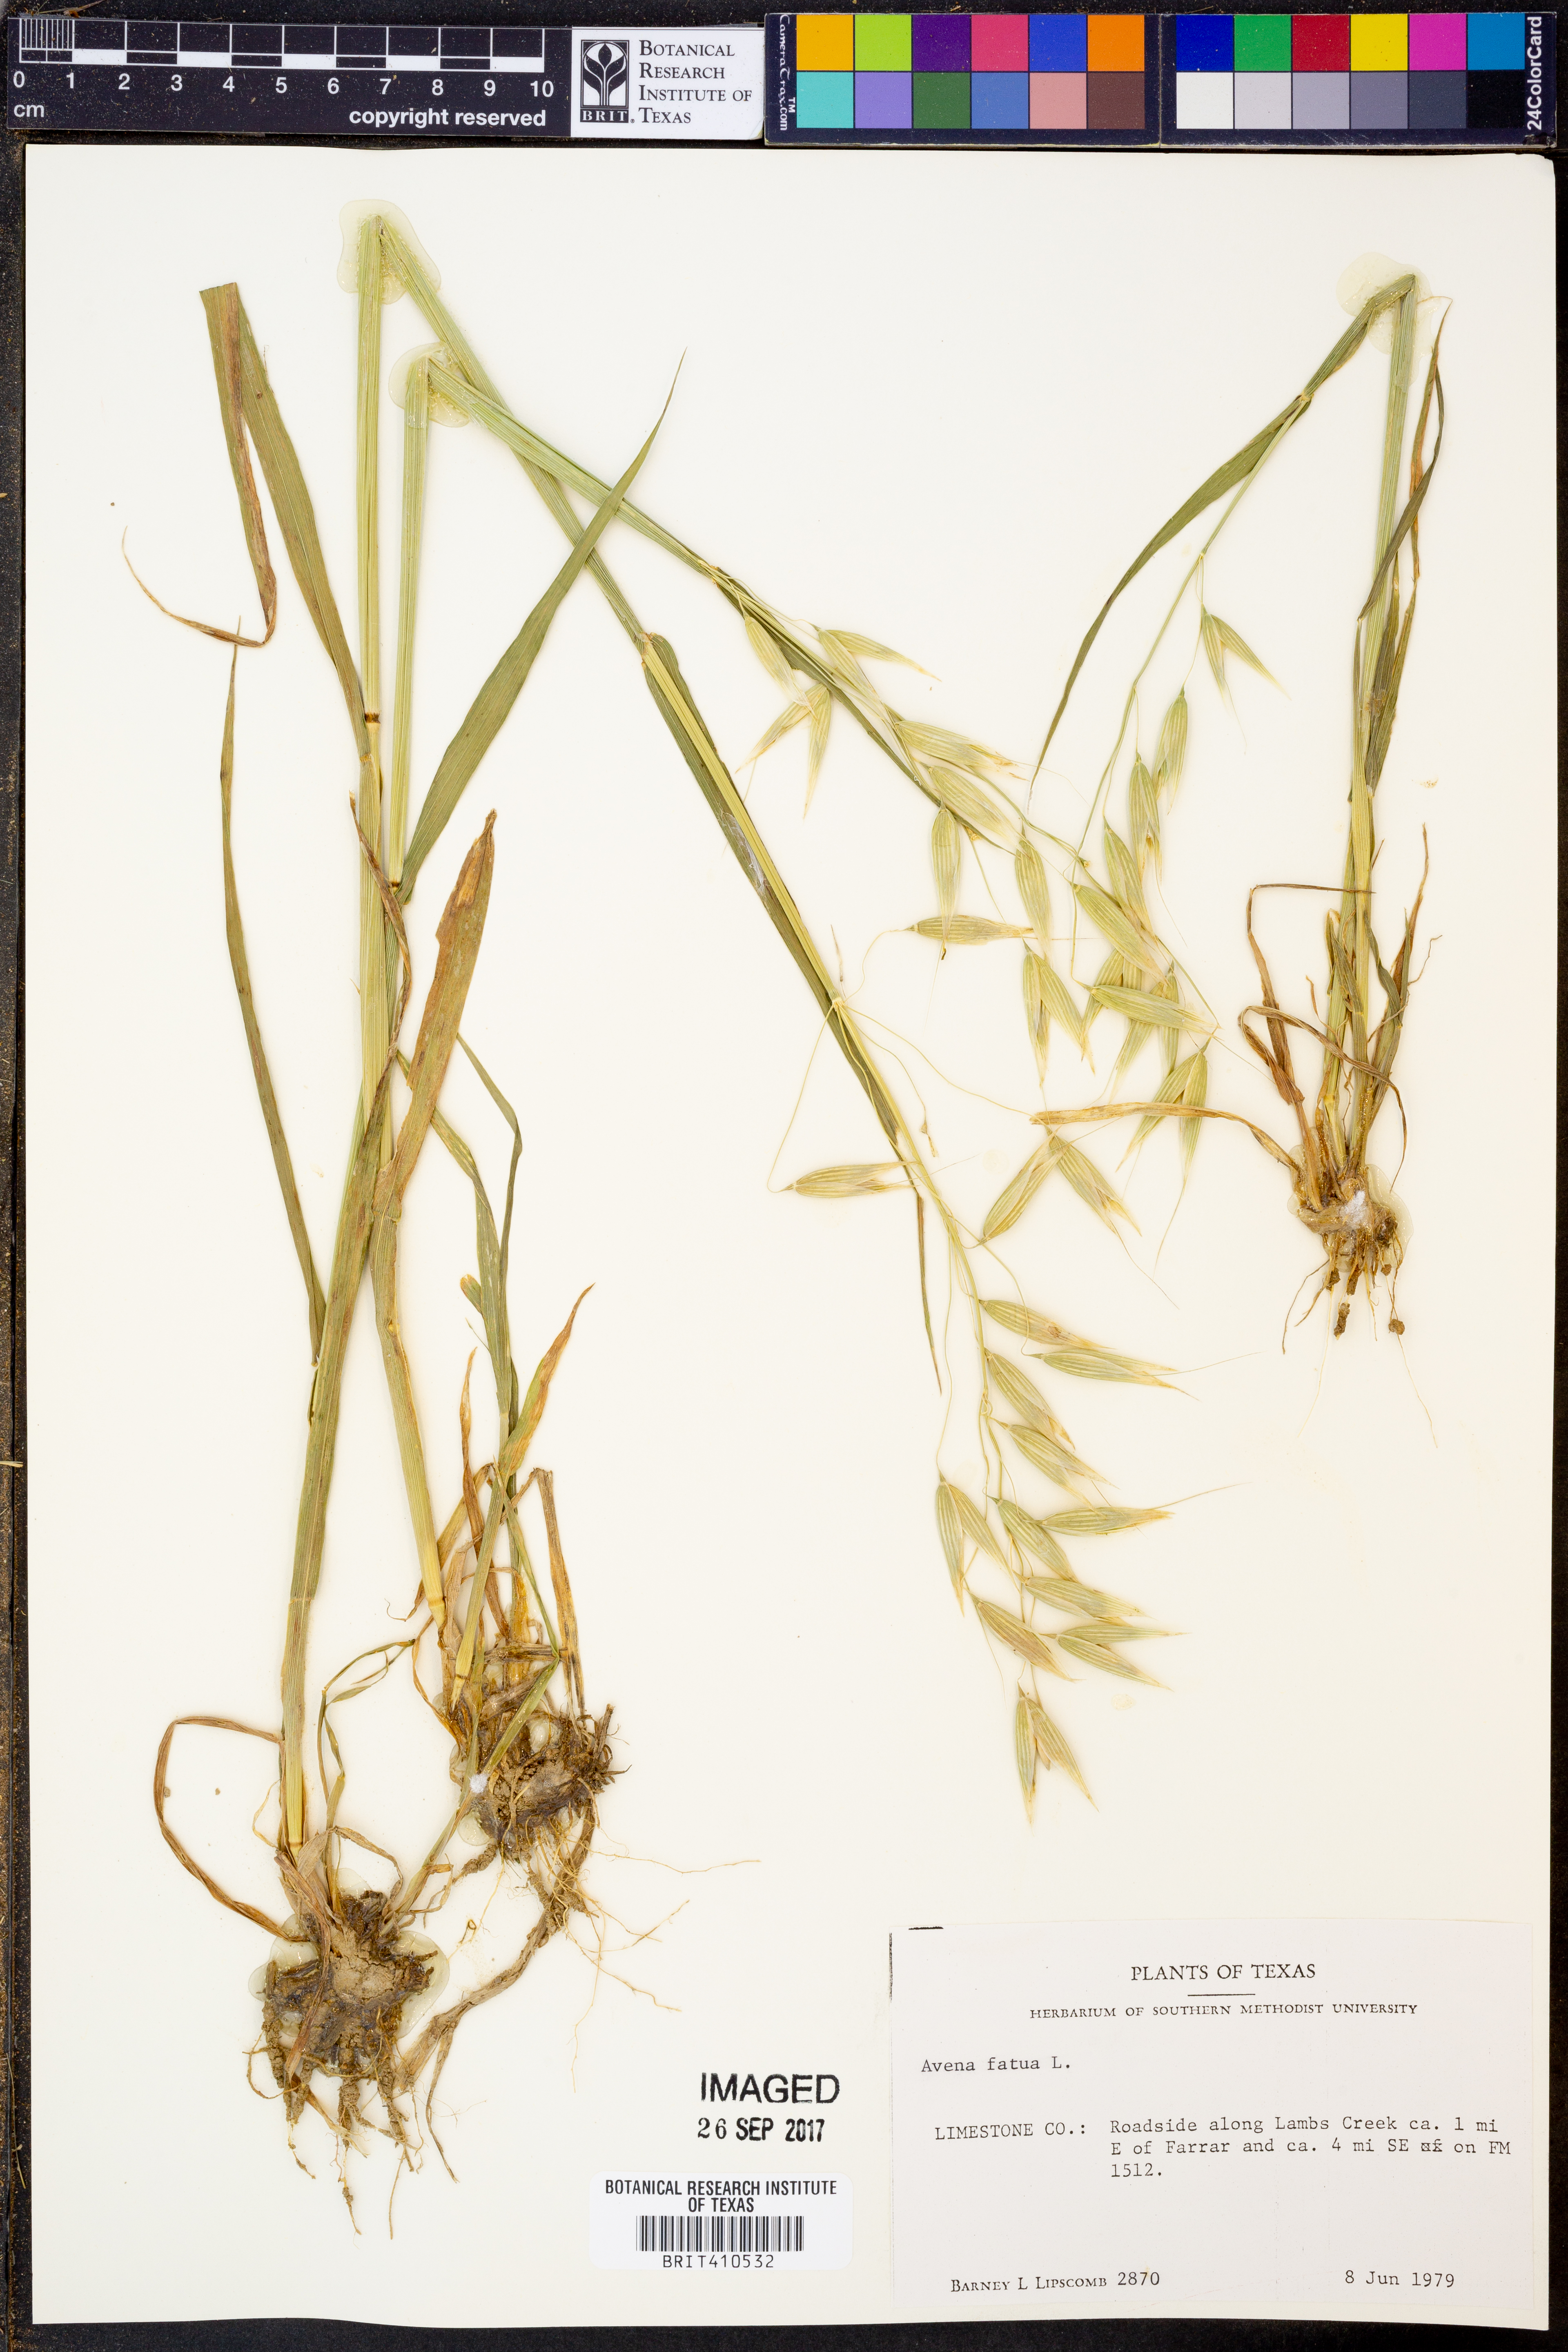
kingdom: Plantae
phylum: Tracheophyta
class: Liliopsida
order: Poales
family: Poaceae
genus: Avena
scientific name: Avena fatua
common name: Wild oat
